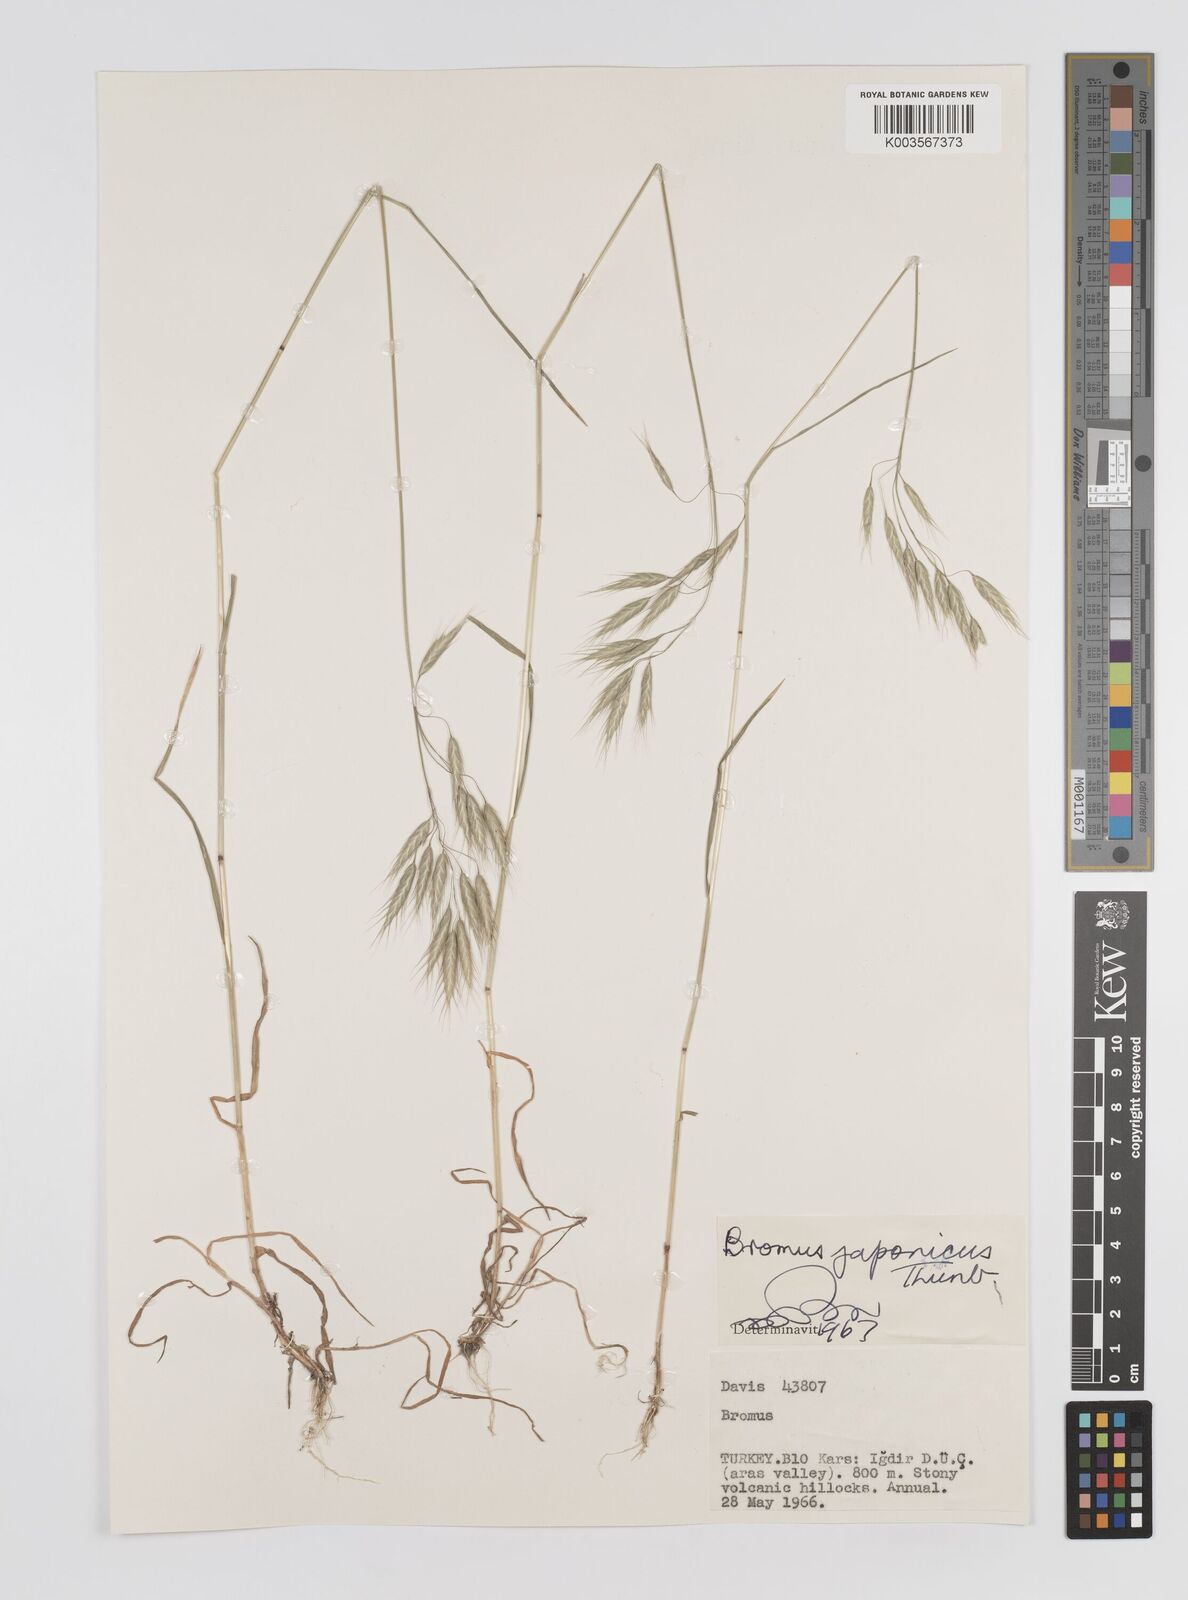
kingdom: Plantae
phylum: Tracheophyta
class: Liliopsida
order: Poales
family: Poaceae
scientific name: Poaceae
